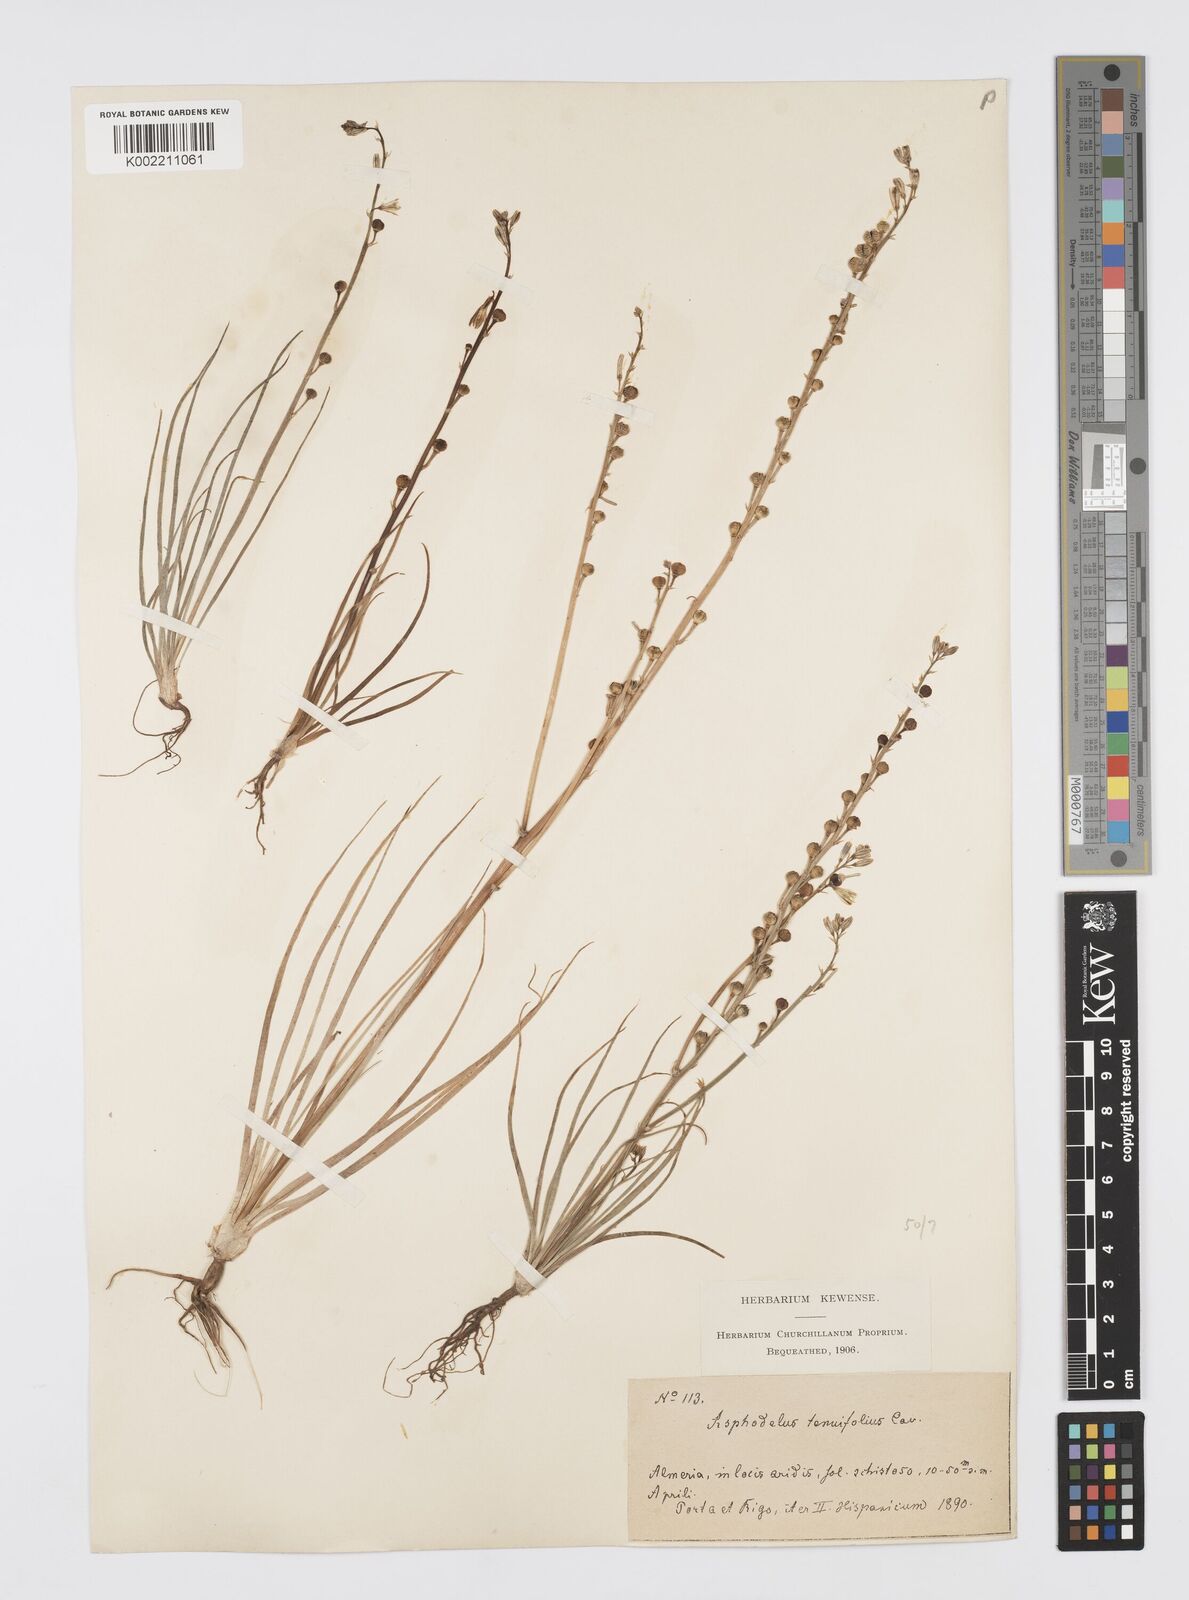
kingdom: Plantae
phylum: Tracheophyta
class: Liliopsida
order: Asparagales
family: Asphodelaceae
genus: Asphodelus
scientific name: Asphodelus tenuifolius
